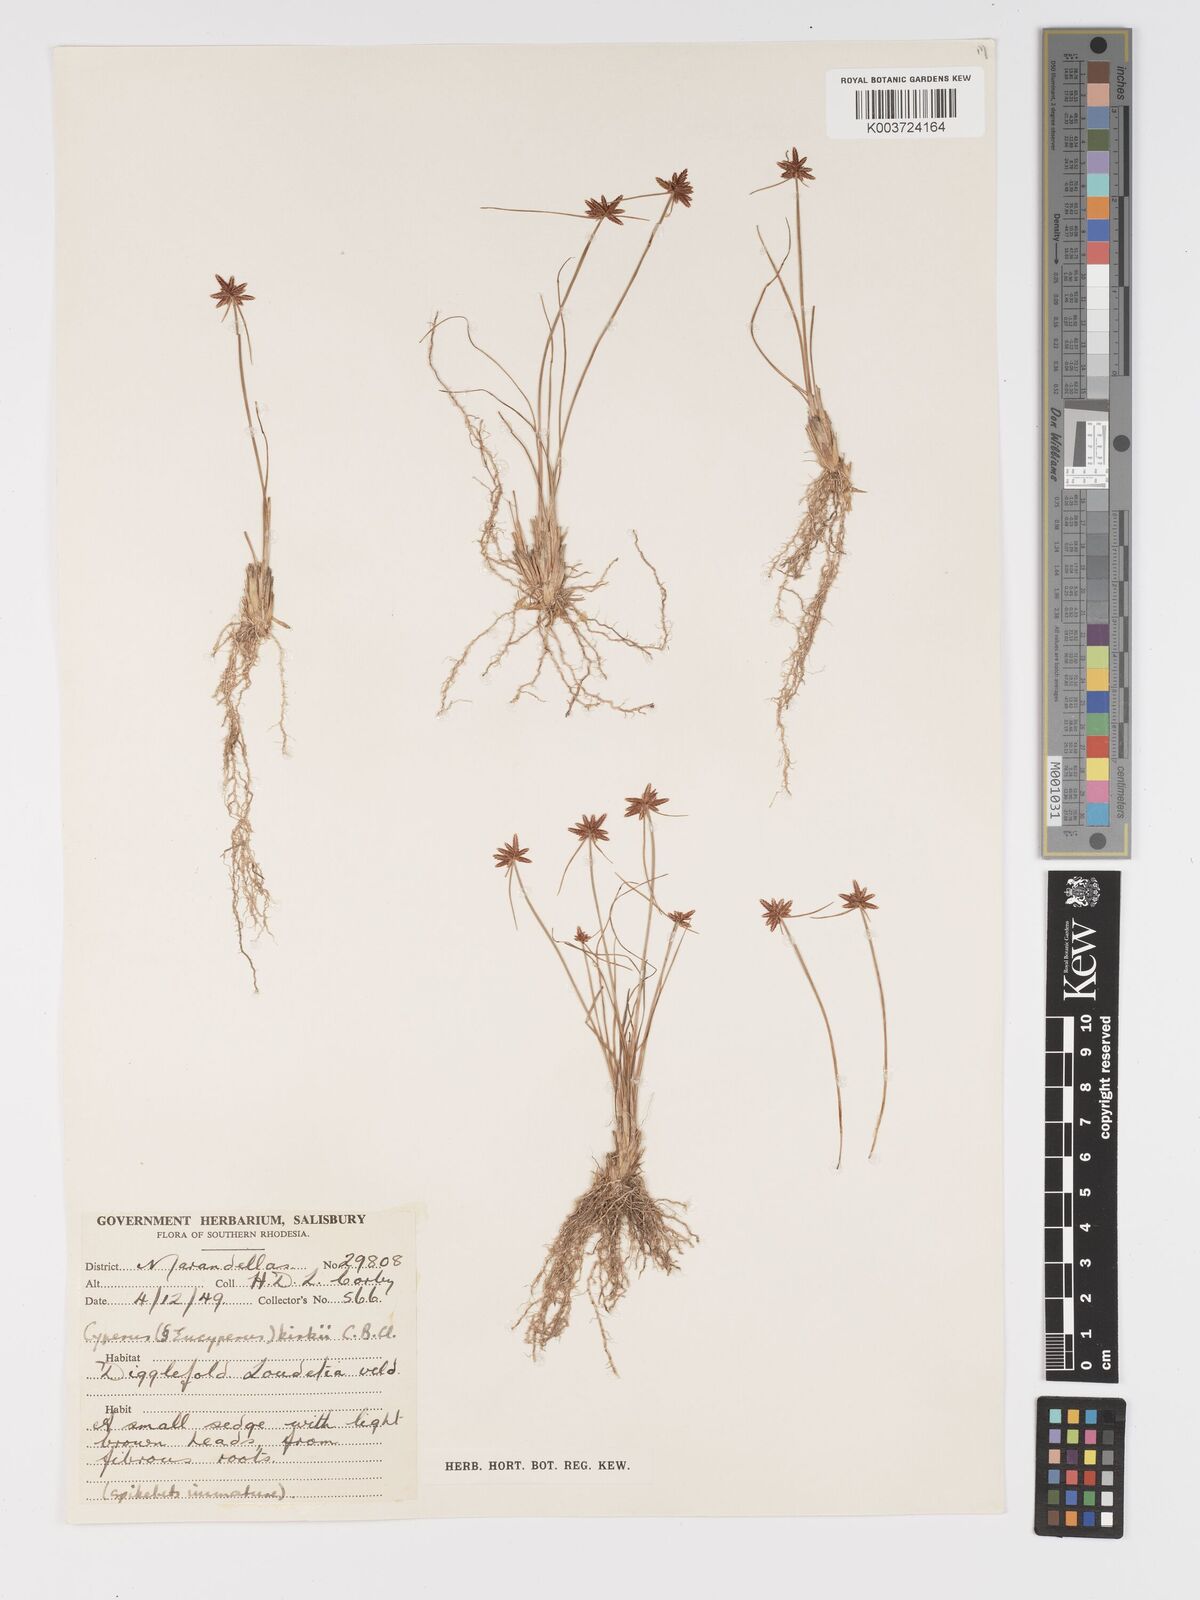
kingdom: Plantae
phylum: Tracheophyta
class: Liliopsida
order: Poales
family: Cyperaceae
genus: Cyperus
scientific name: Cyperus rupestris
